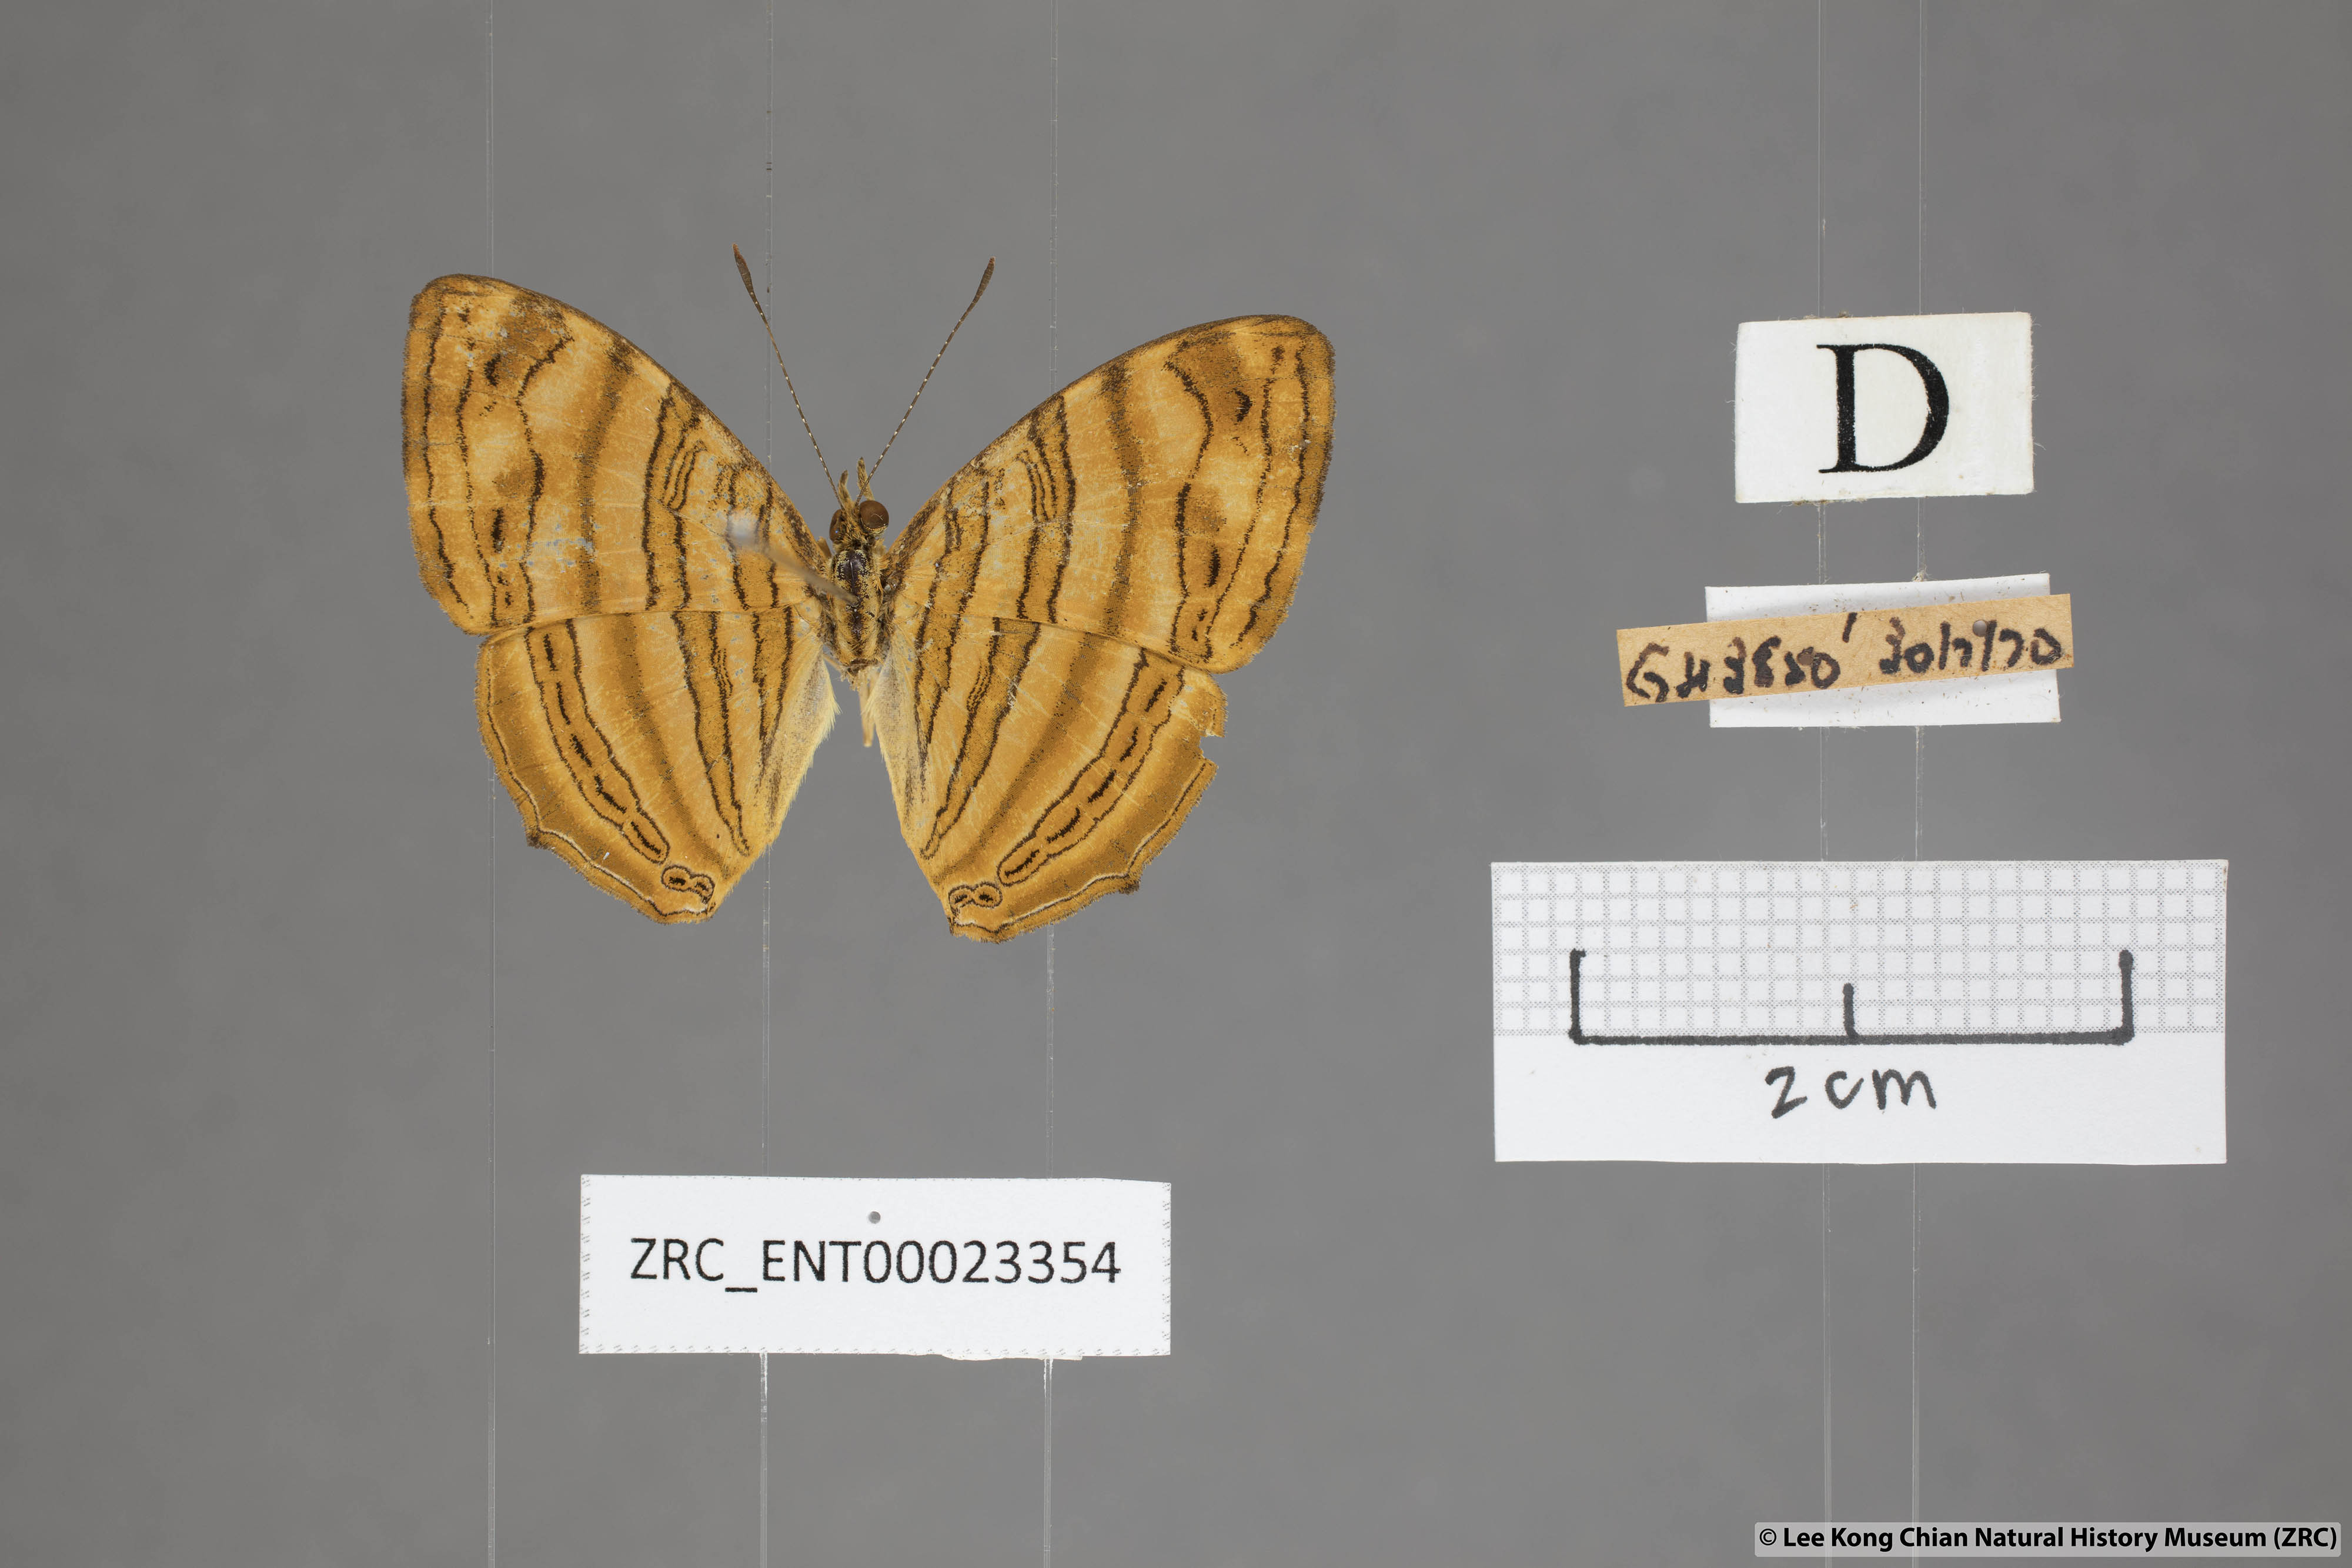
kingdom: Animalia
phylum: Arthropoda
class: Insecta
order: Lepidoptera
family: Nymphalidae
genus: Chersonesia
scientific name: Chersonesia intermedia
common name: Intermediate maplet
